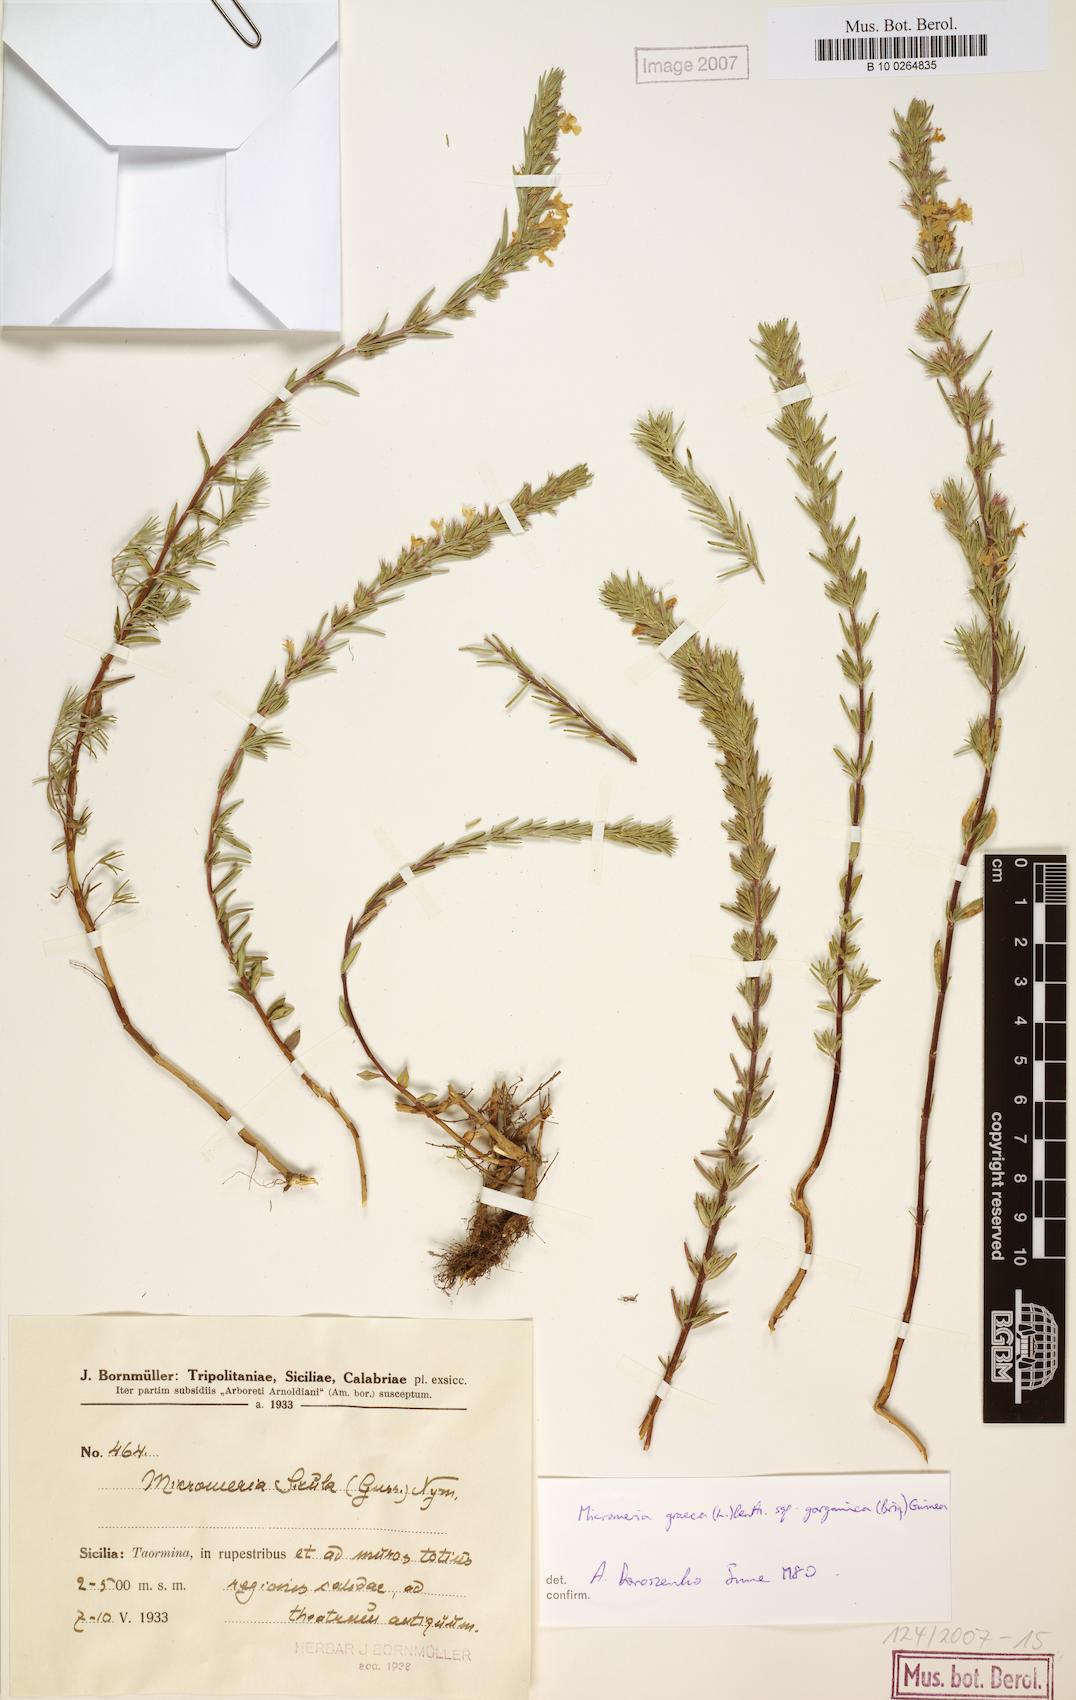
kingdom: Plantae
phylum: Tracheophyta
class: Magnoliopsida
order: Lamiales
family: Lamiaceae
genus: Micromeria
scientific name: Micromeria graeca
